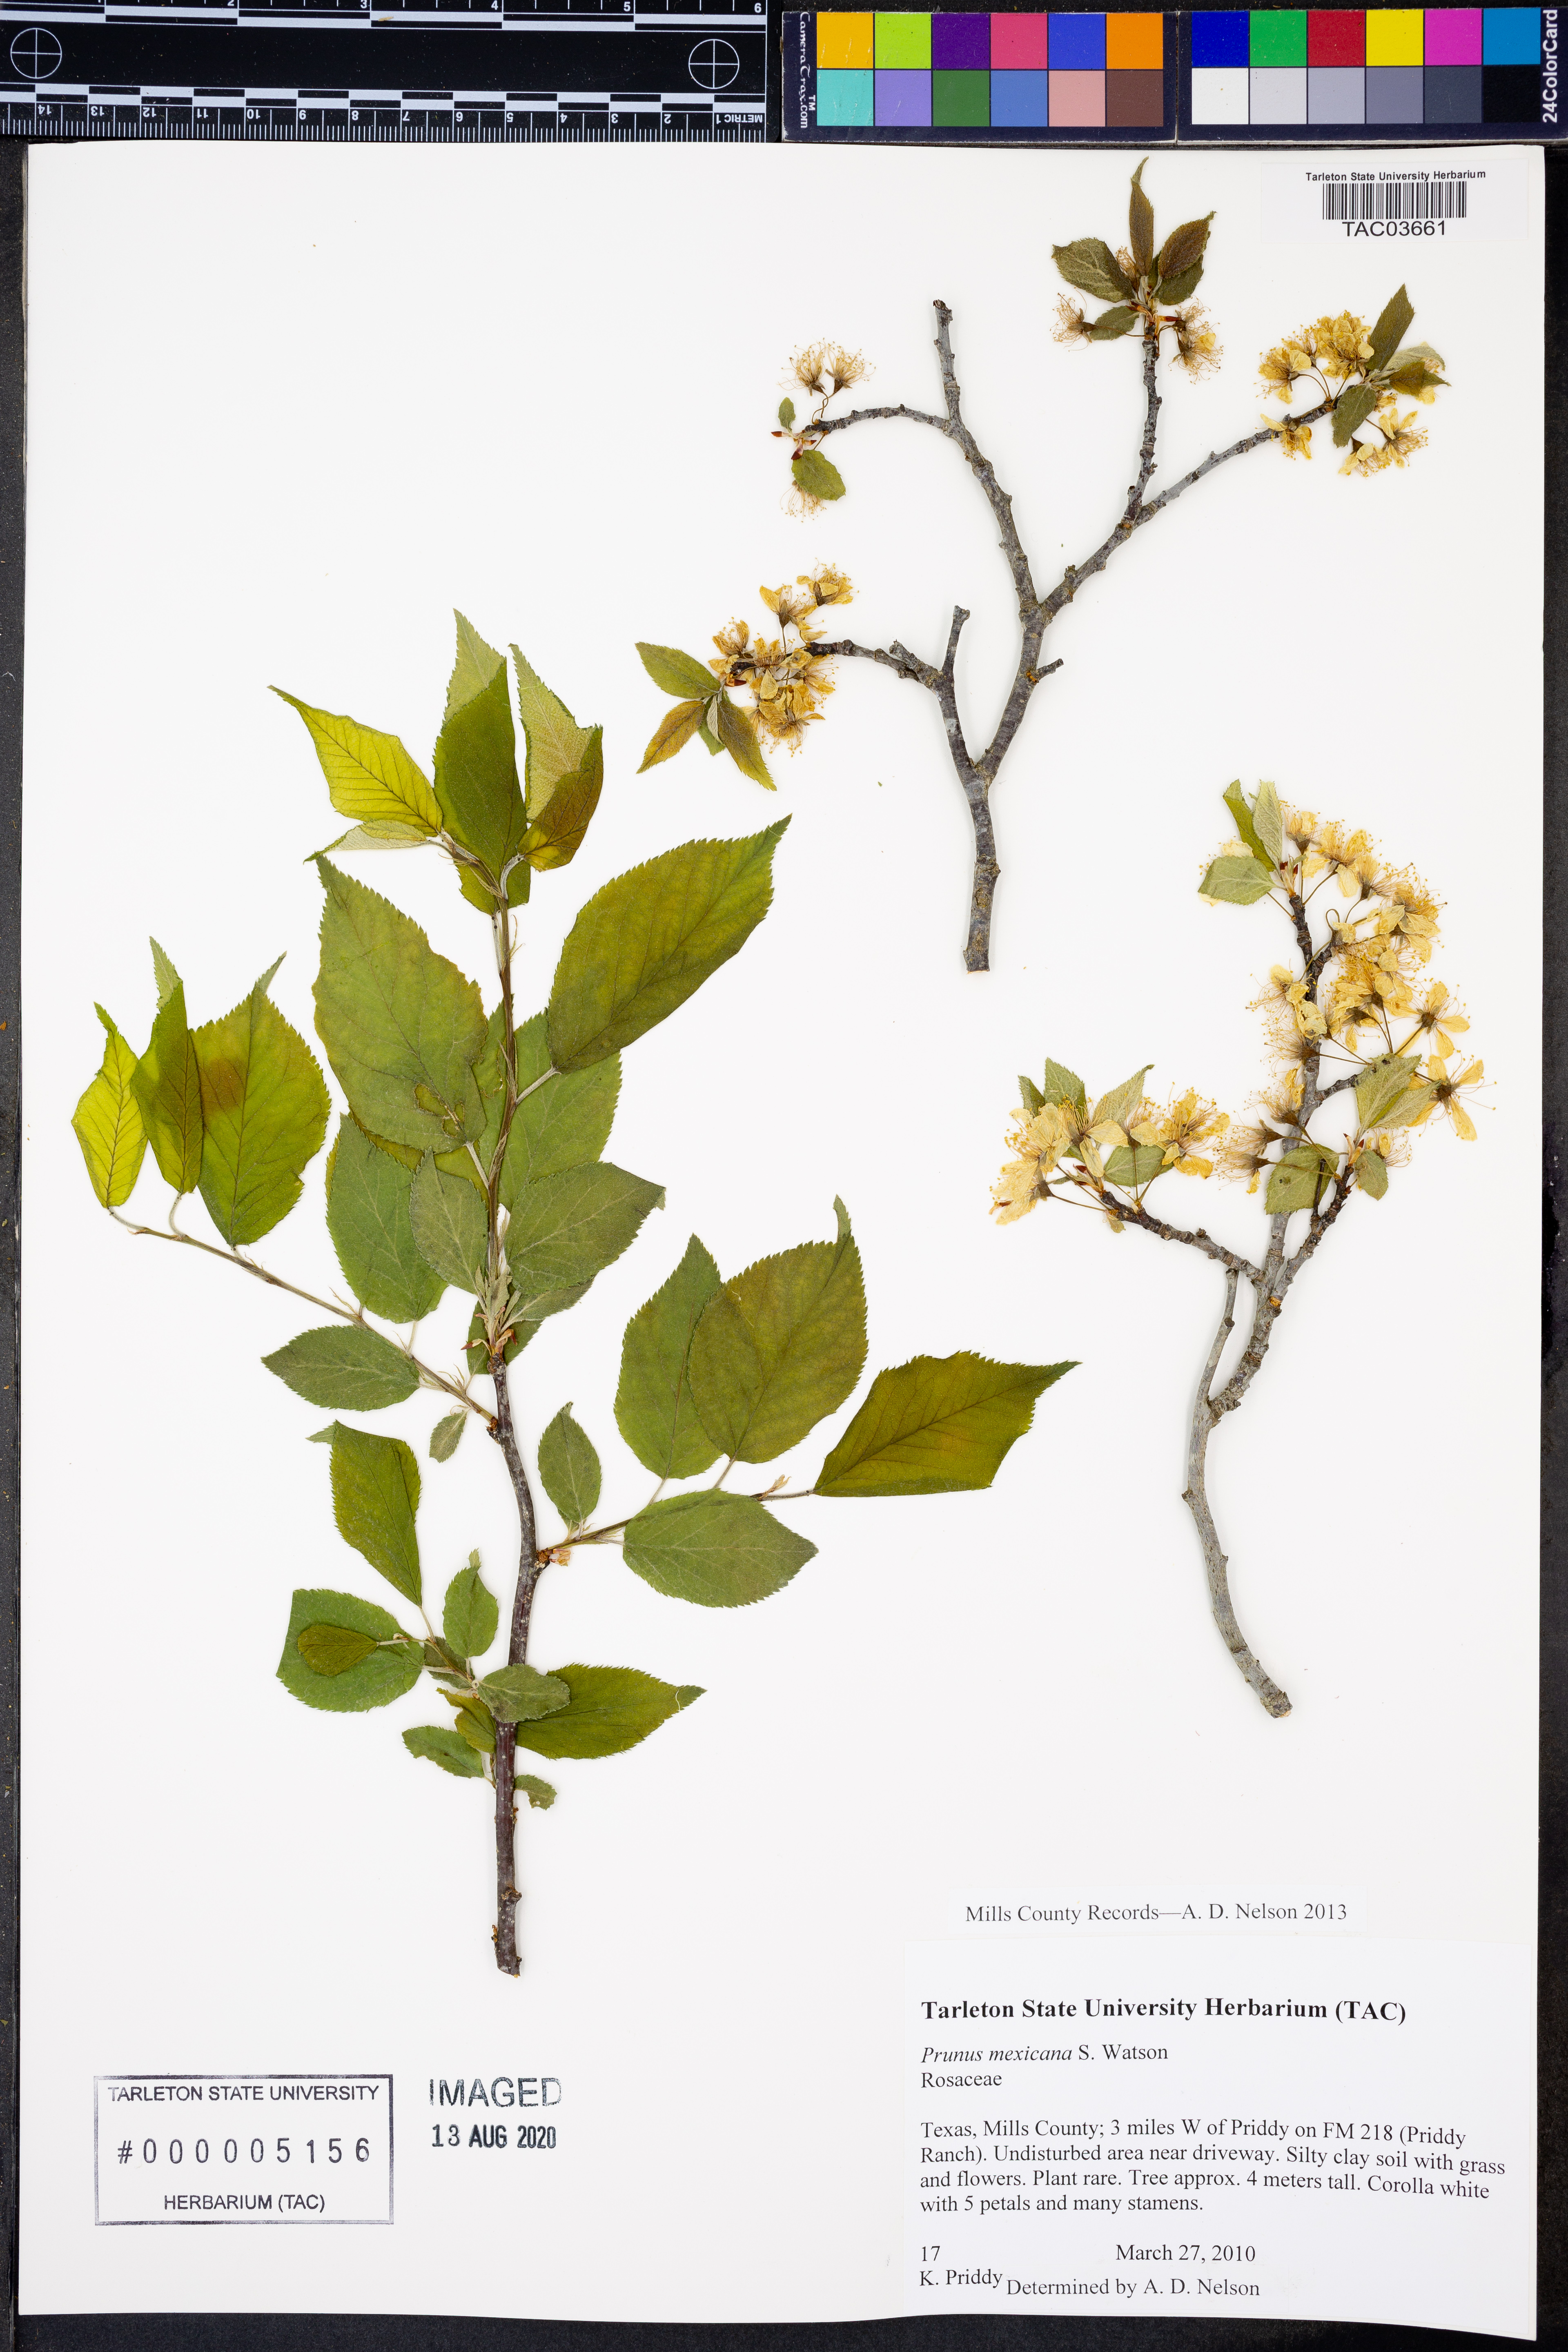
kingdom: Plantae
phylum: Tracheophyta
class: Magnoliopsida
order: Rosales
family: Rosaceae
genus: Prunus
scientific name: Prunus mexicana
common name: Mexican plum
